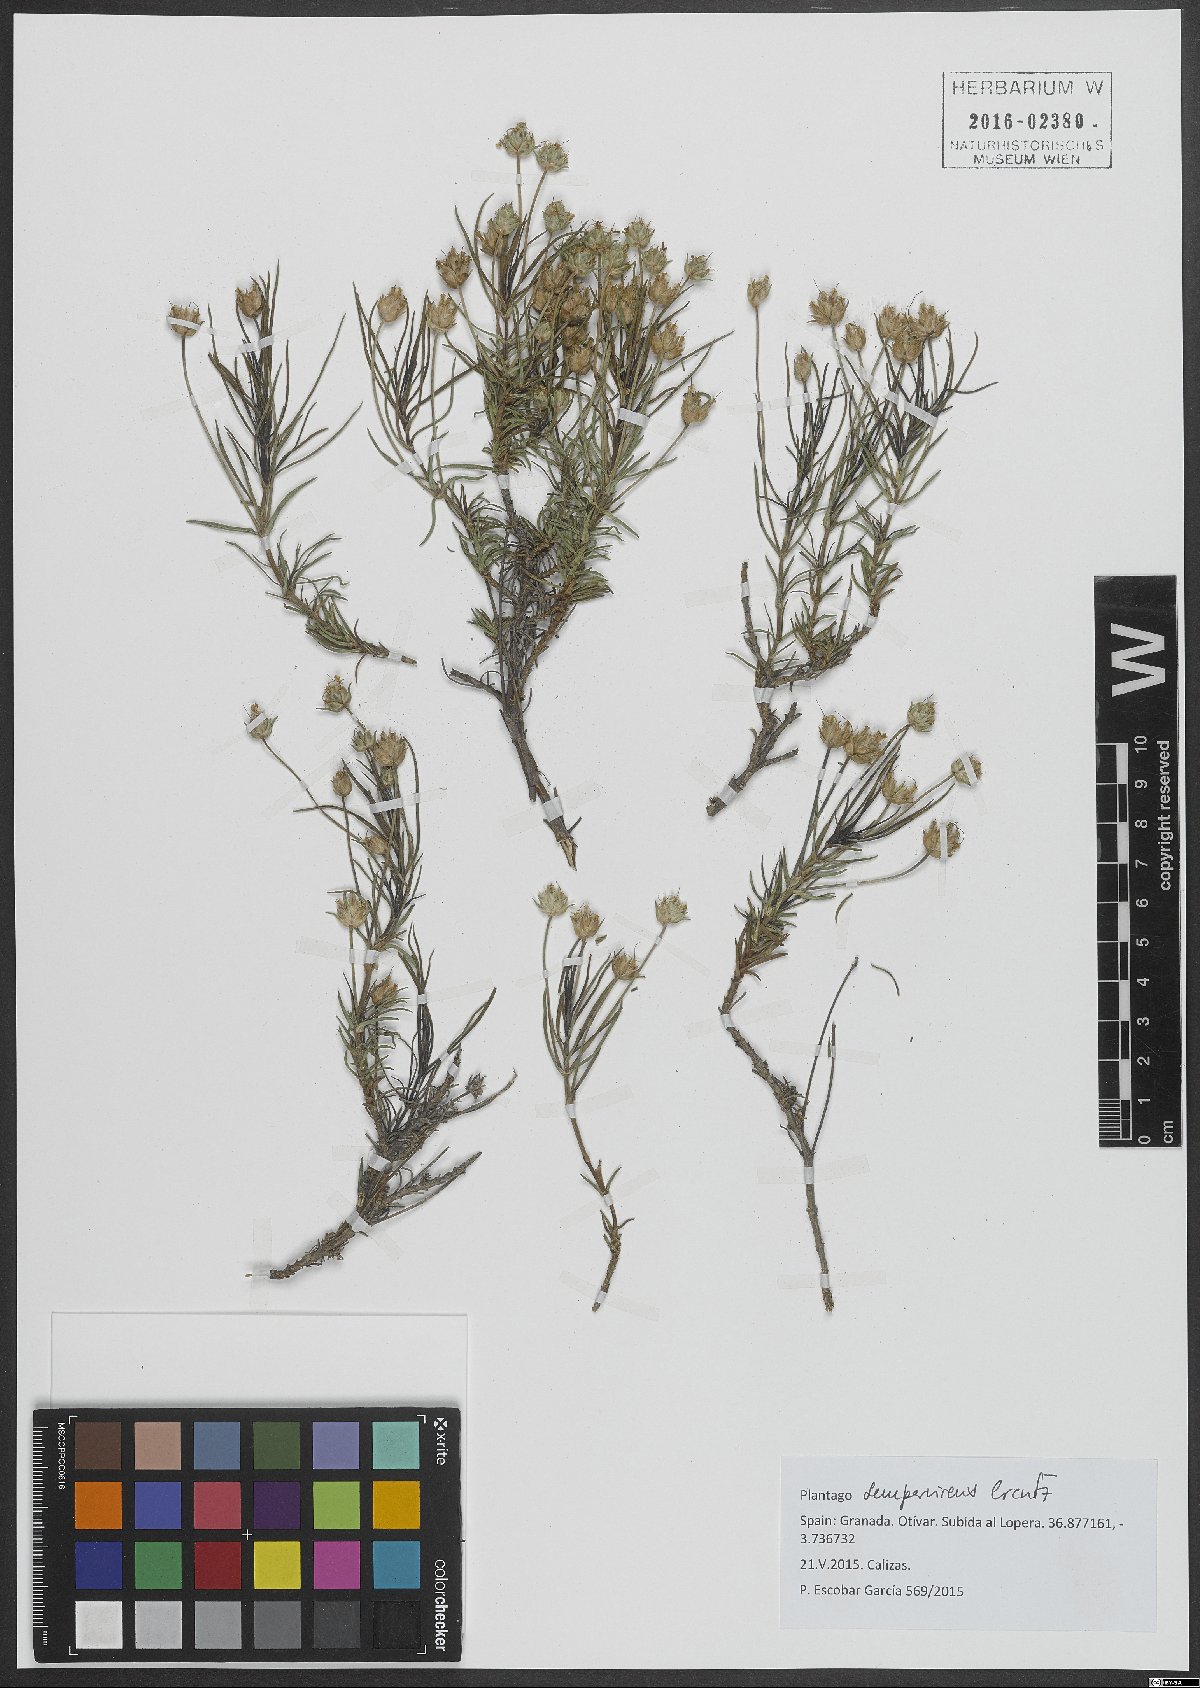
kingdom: Plantae
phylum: Tracheophyta
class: Magnoliopsida
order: Lamiales
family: Plantaginaceae
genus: Plantago
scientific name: Plantago sempervirens
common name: Shrubby plantain
